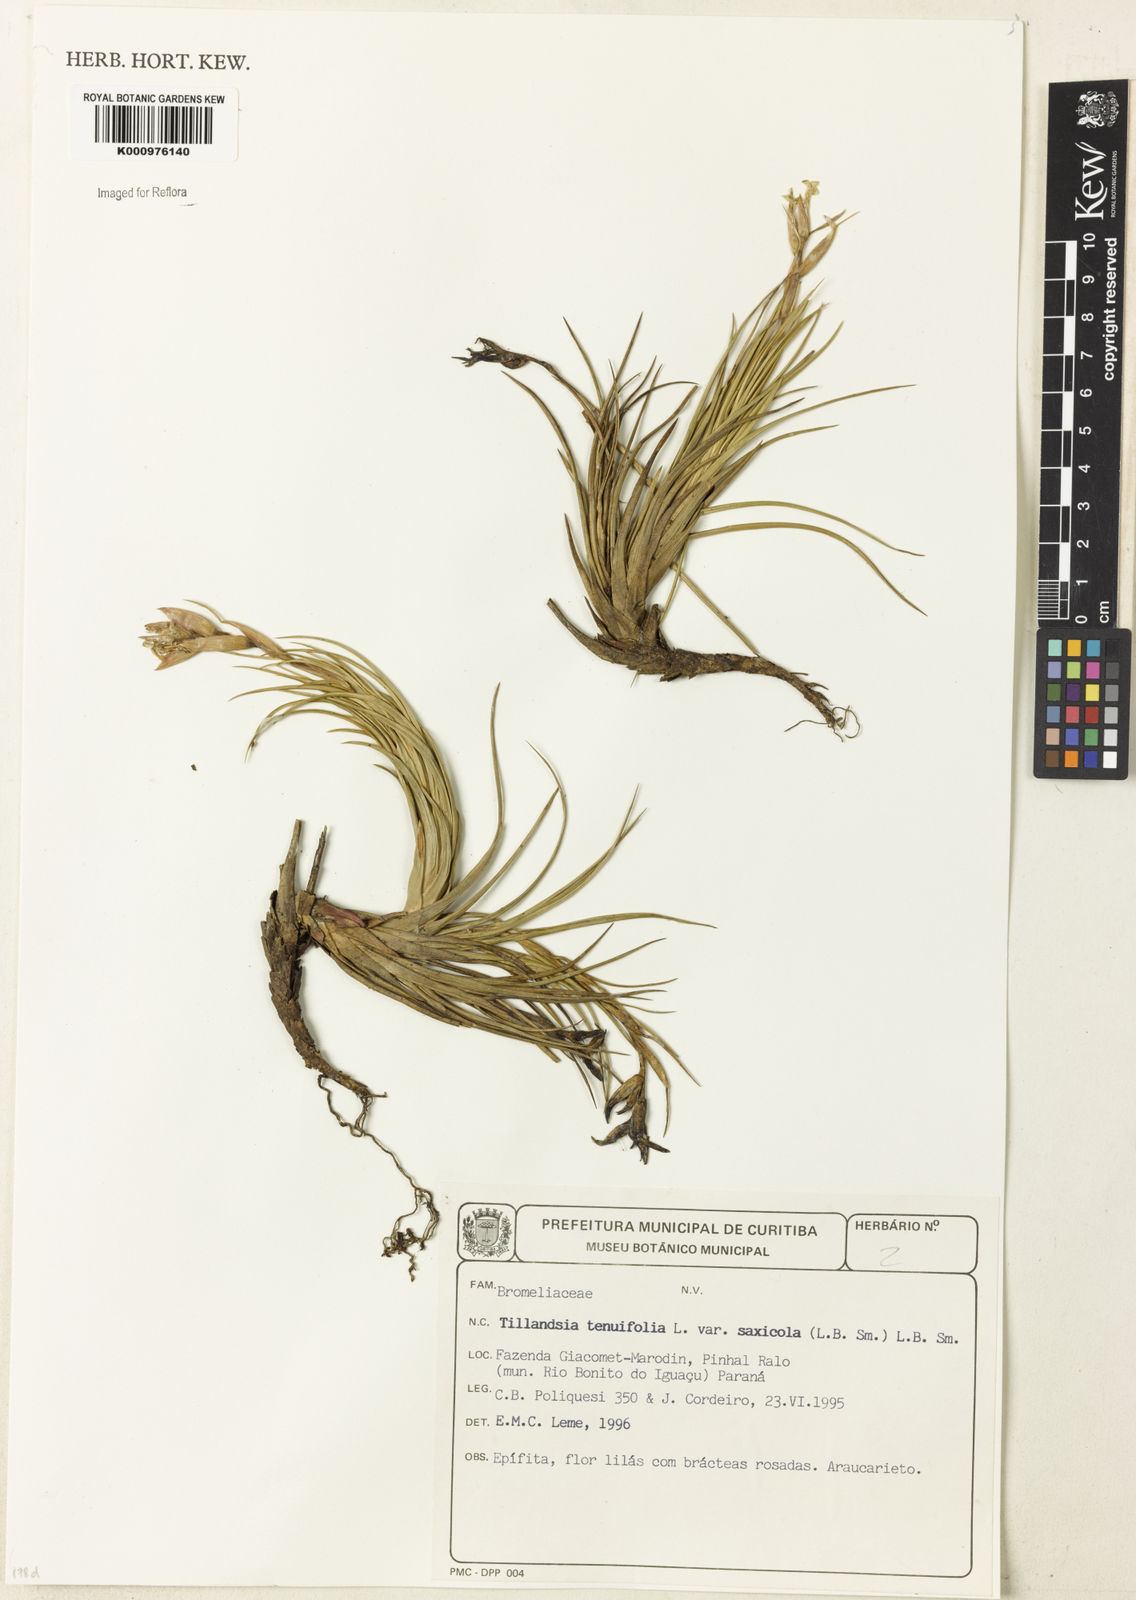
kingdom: Plantae
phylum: Tracheophyta
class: Liliopsida
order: Poales
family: Bromeliaceae
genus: Tillandsia
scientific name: Tillandsia tenuifolia
